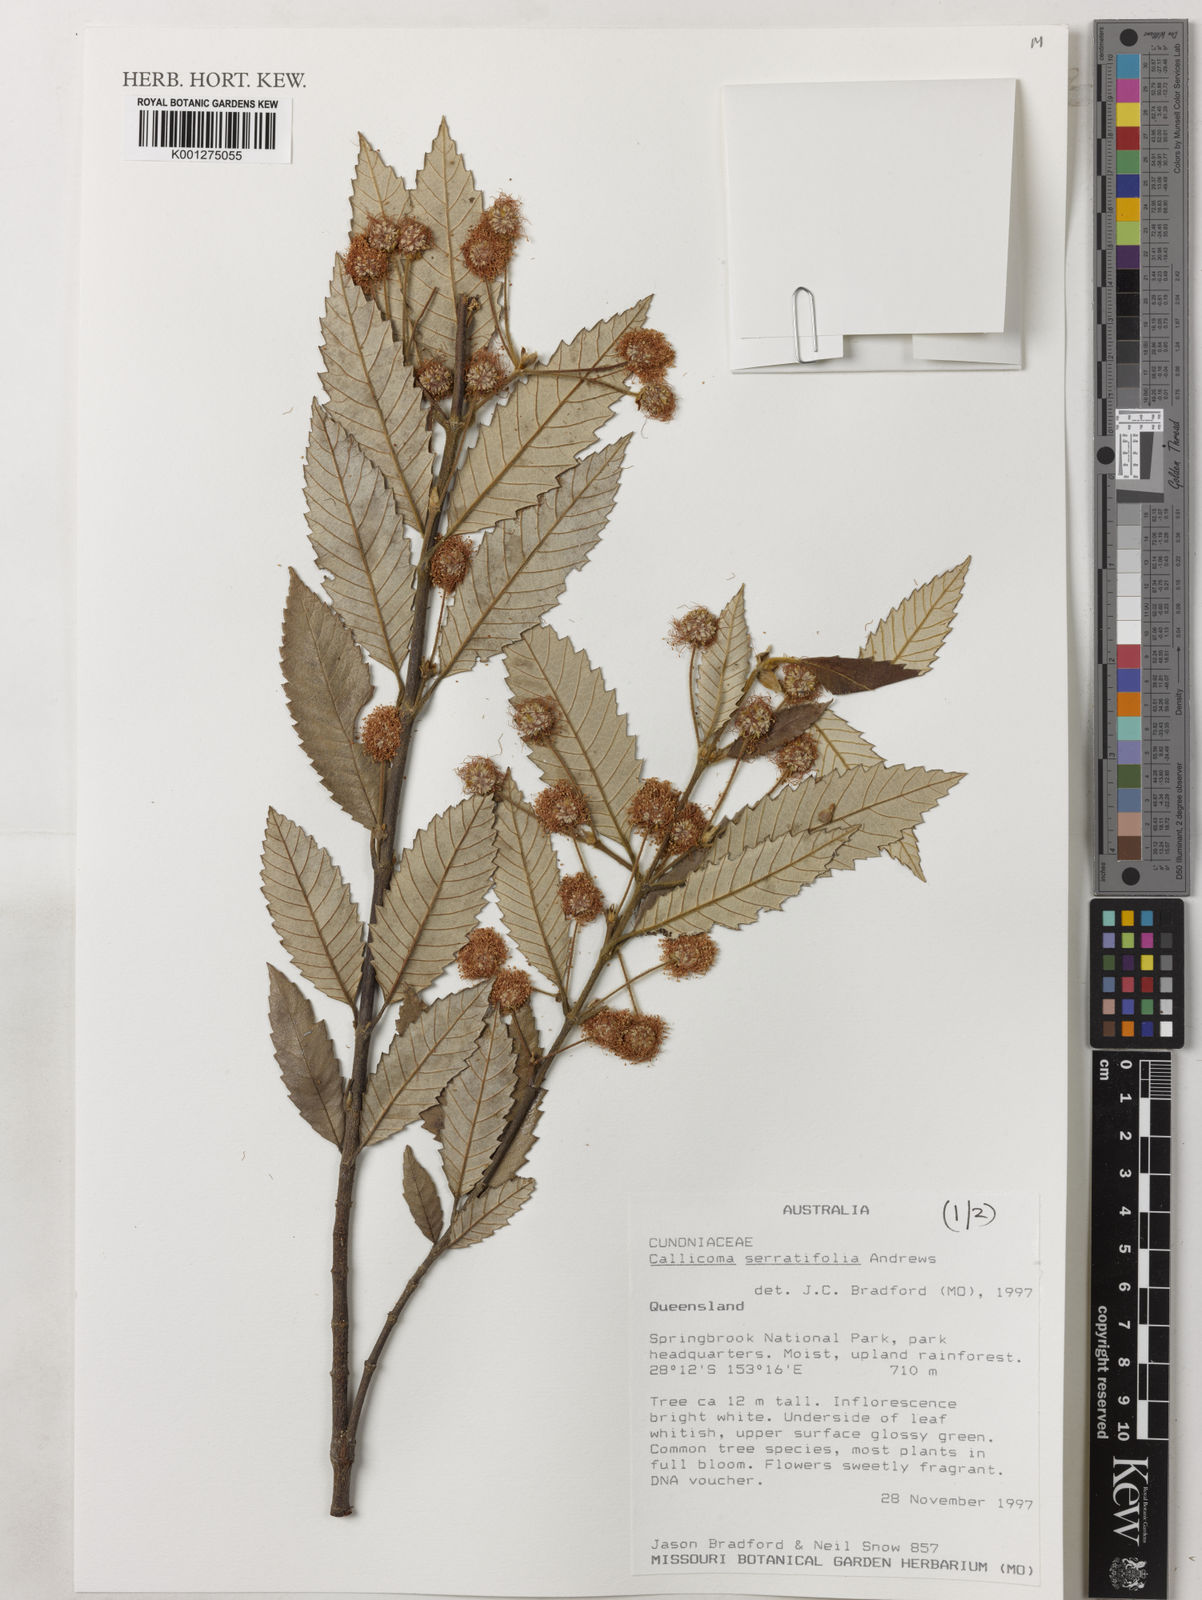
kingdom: Plantae
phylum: Tracheophyta
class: Magnoliopsida
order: Oxalidales
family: Cunoniaceae
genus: Callicoma
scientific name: Callicoma serratifolia
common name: Black wattle
